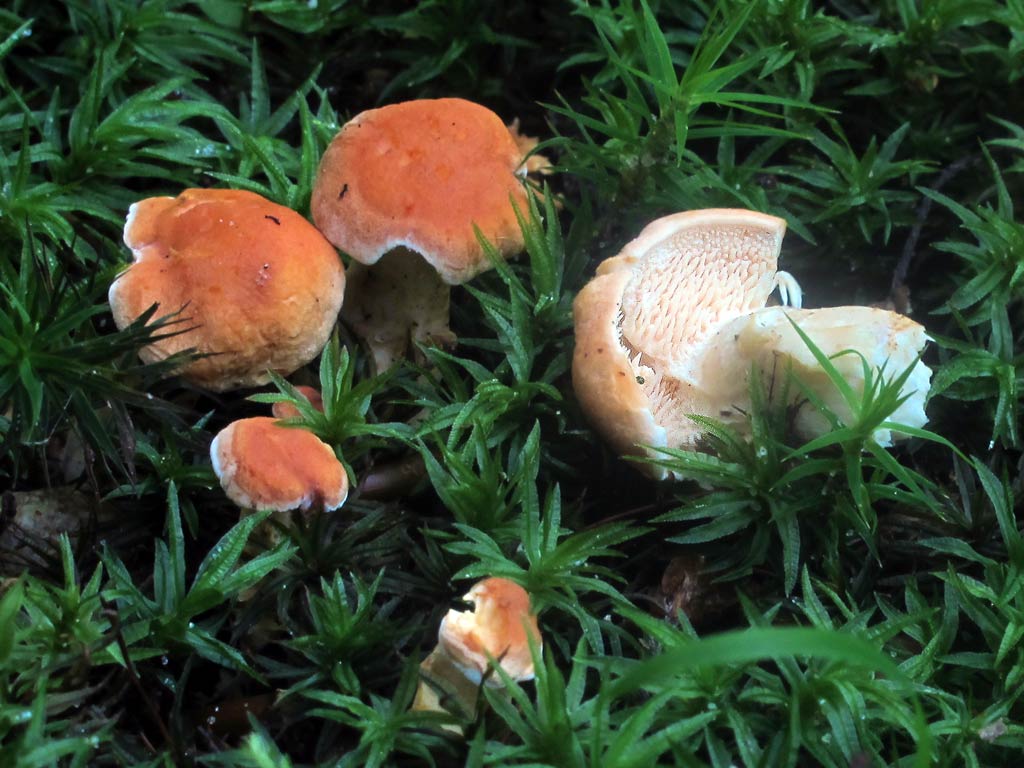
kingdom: Fungi
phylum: Basidiomycota
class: Agaricomycetes
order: Cantharellales
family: Hydnaceae
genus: Hydnum
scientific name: Hydnum rufescens
